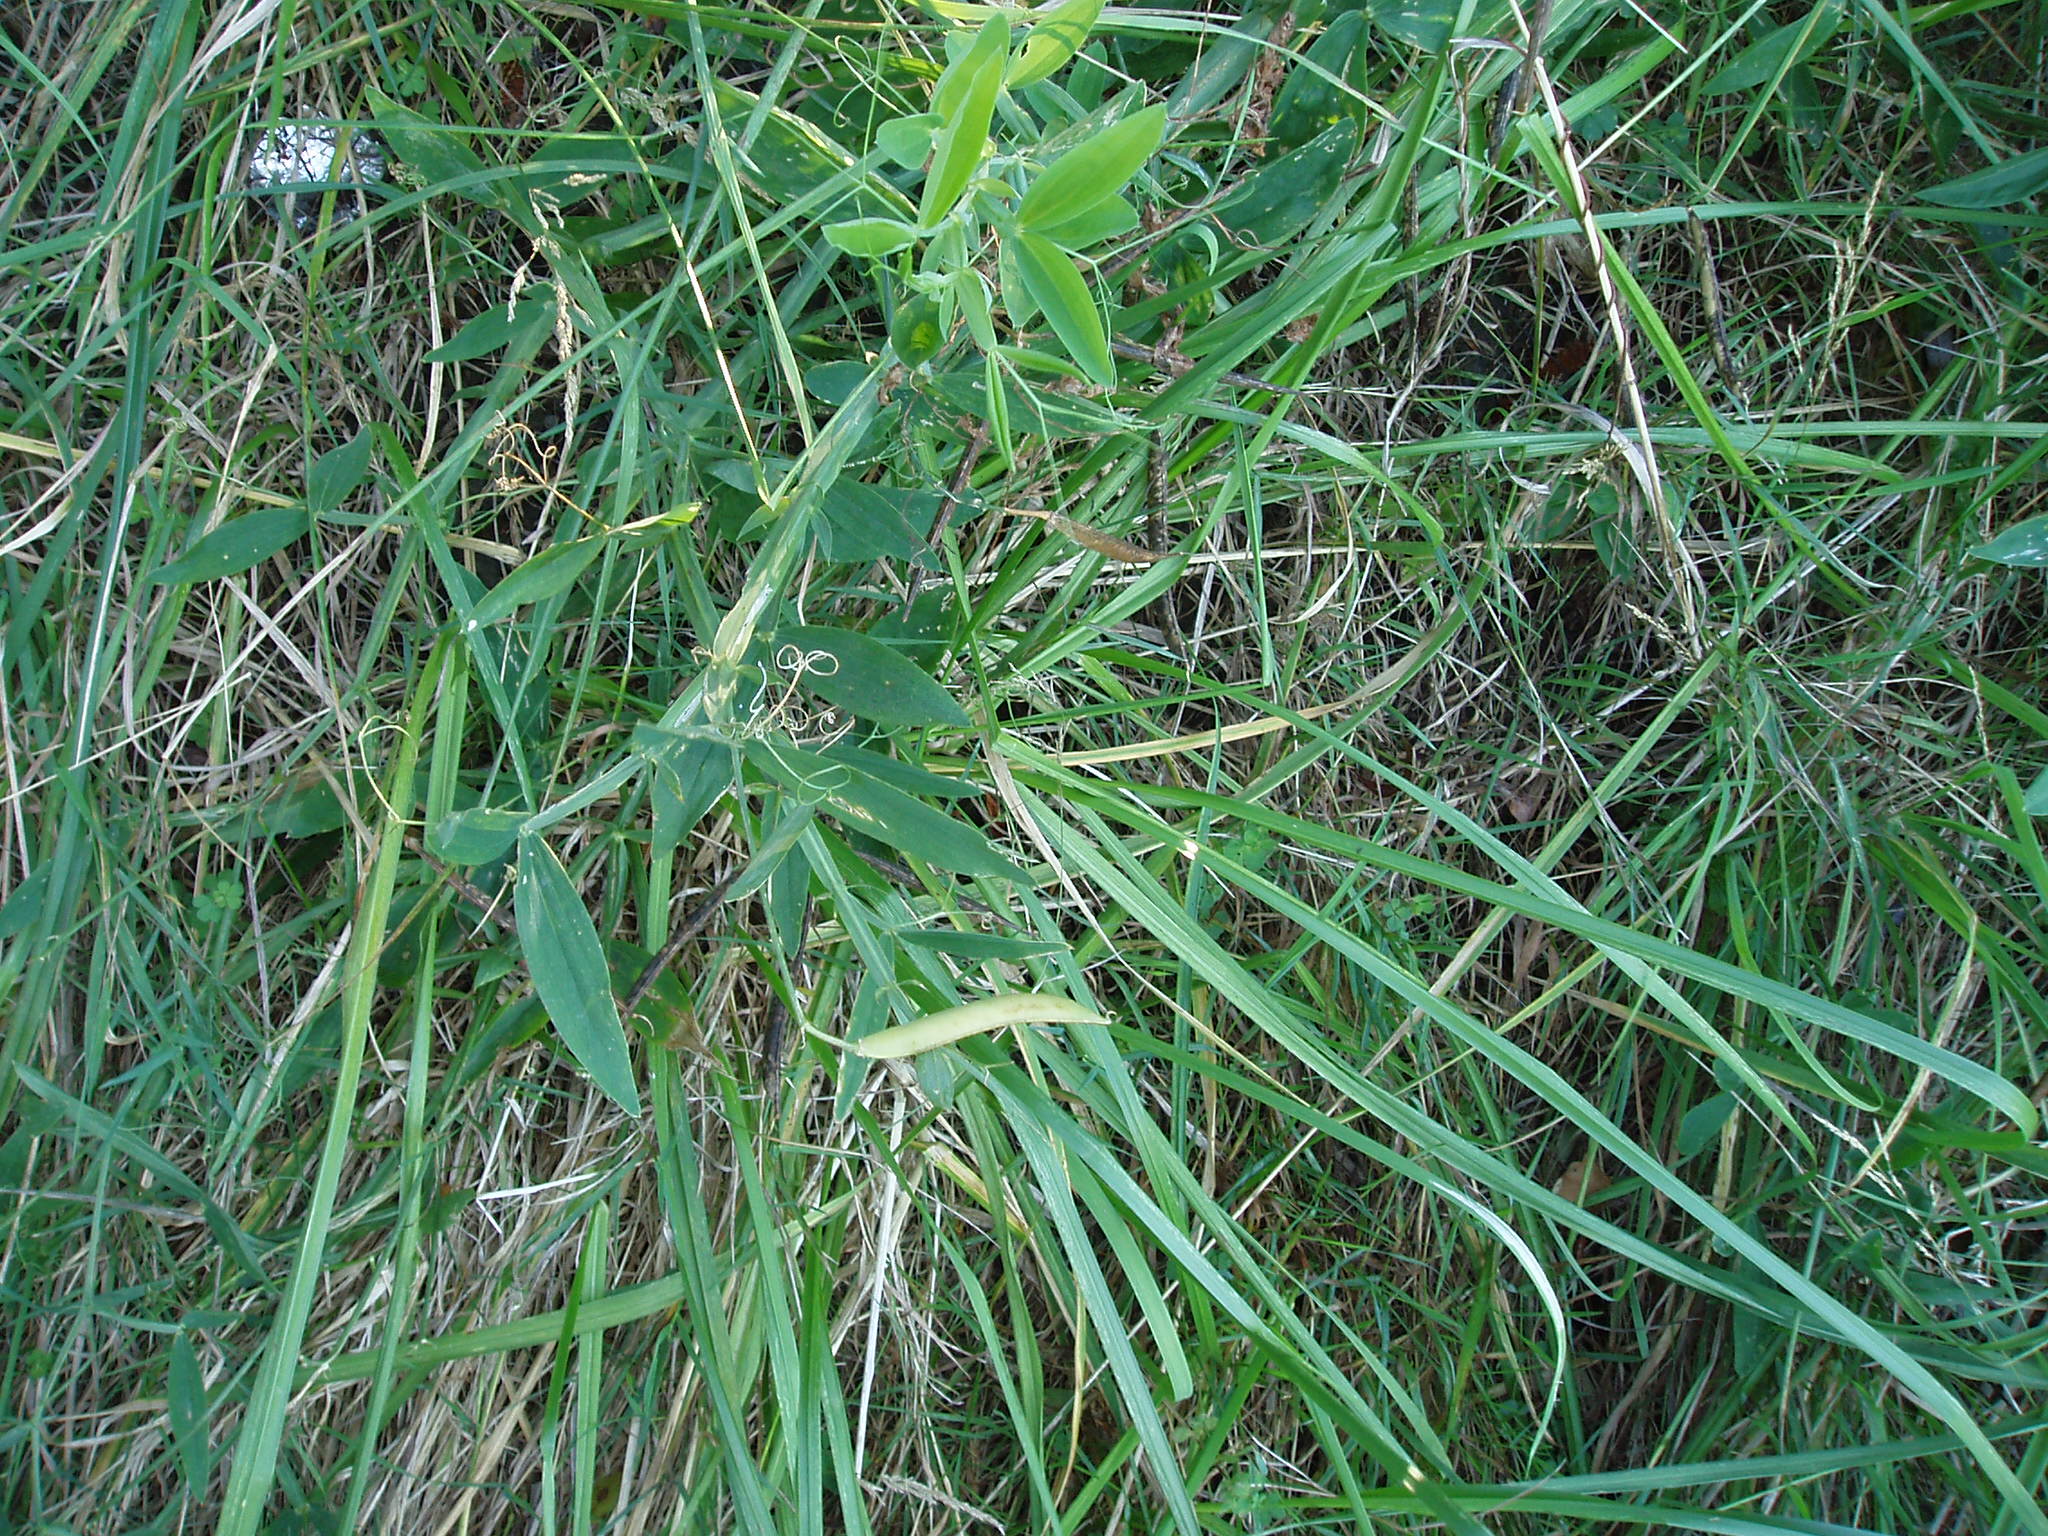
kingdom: Plantae
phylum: Tracheophyta
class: Magnoliopsida
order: Fabales
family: Fabaceae
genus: Lathyrus
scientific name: Lathyrus latifolius
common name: Perennial pea
